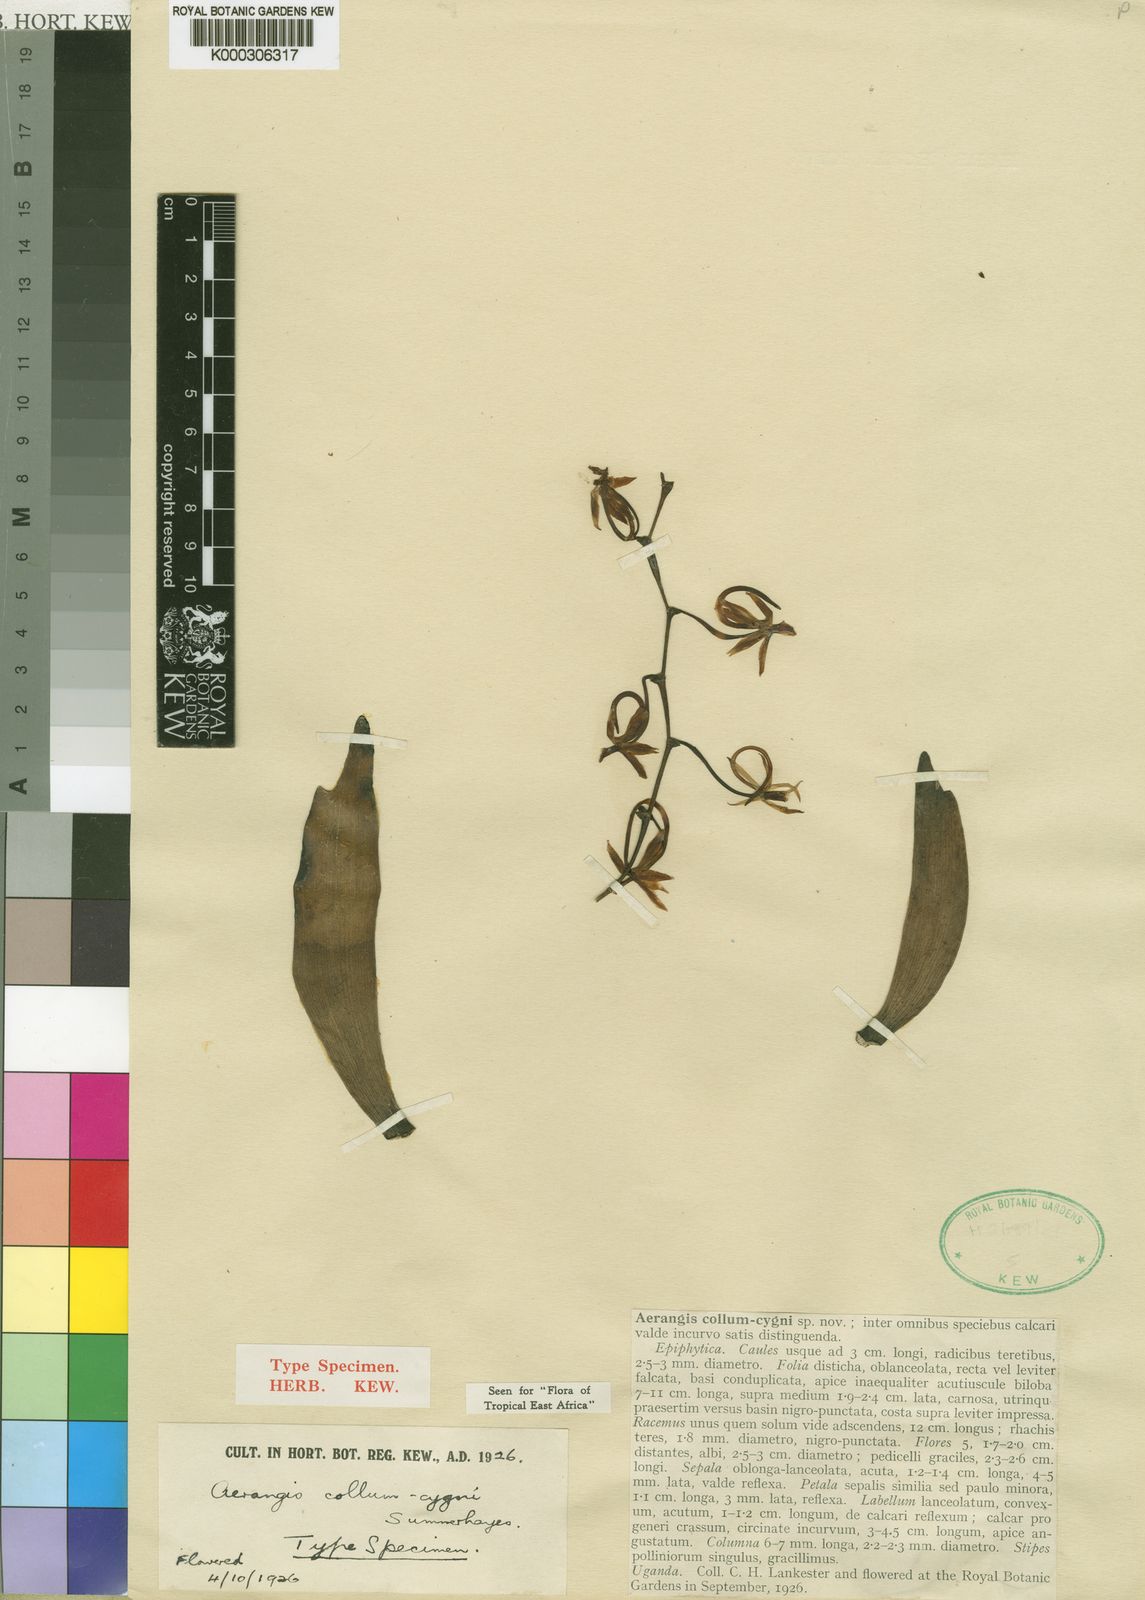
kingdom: Plantae
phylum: Tracheophyta
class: Liliopsida
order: Asparagales
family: Orchidaceae
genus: Aerangis
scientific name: Aerangis collum-cygni
